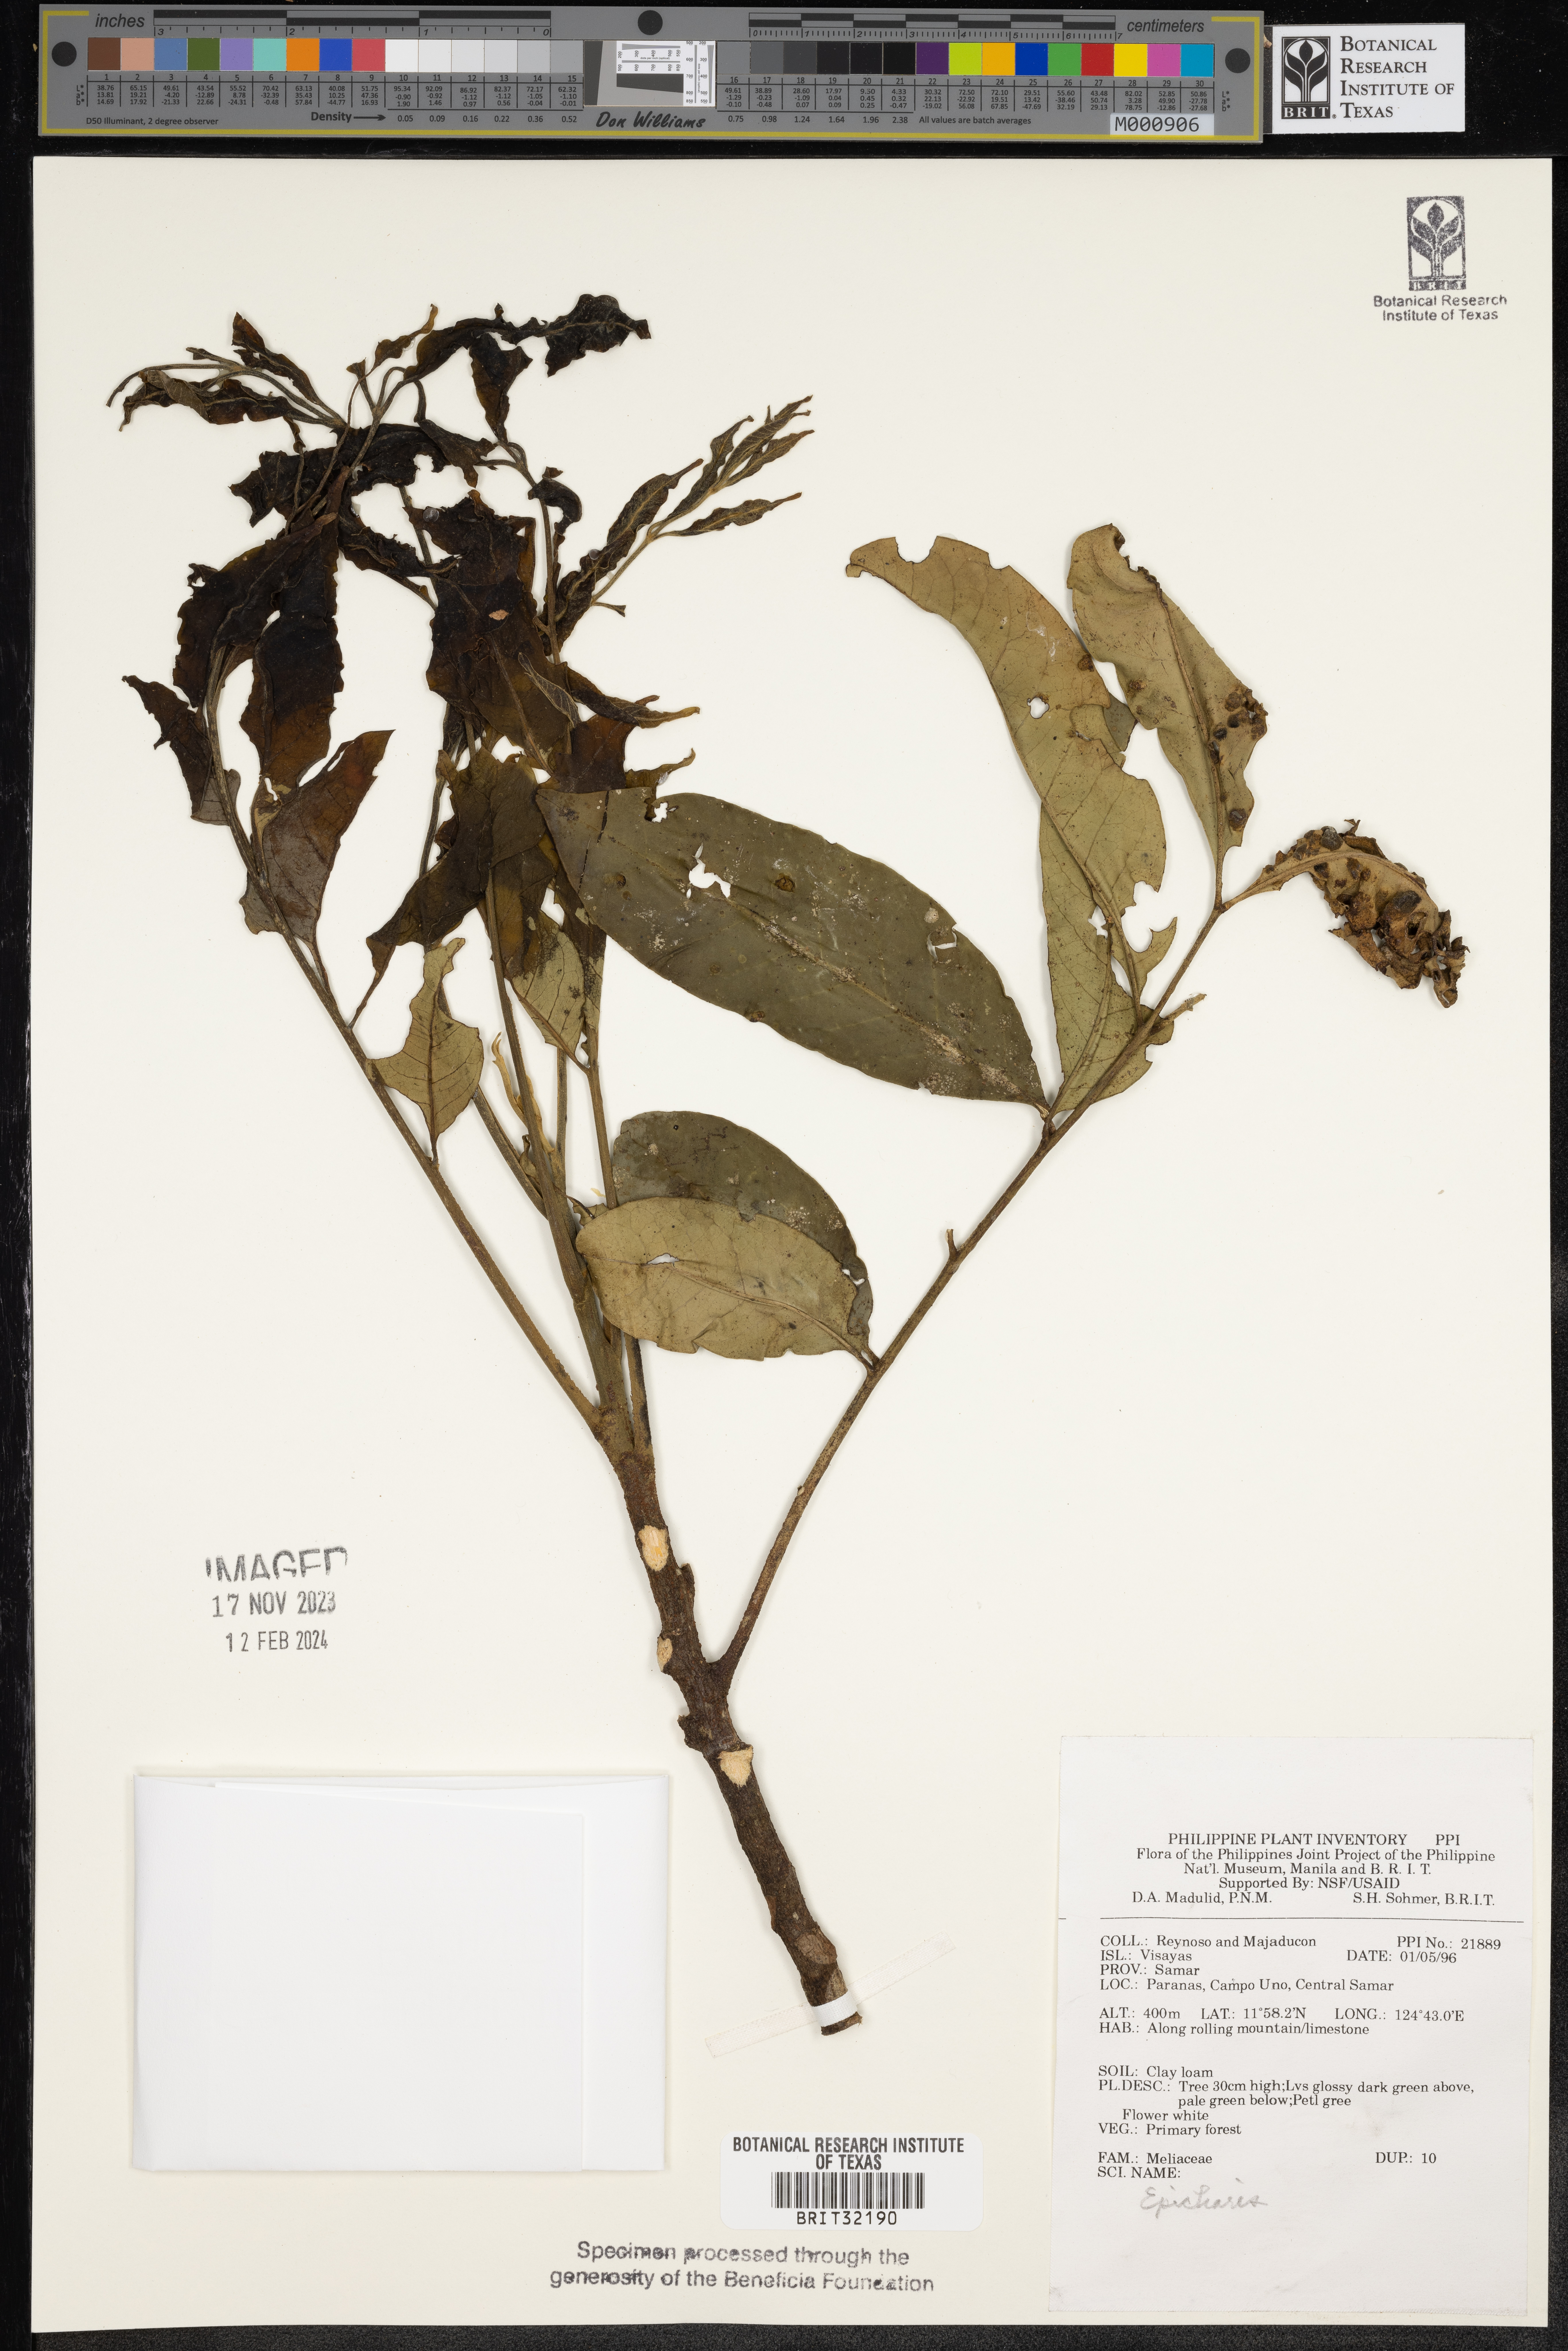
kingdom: Plantae
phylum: Tracheophyta
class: Magnoliopsida
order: Sapindales
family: Meliaceae
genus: Epicharis
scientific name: Epicharis
